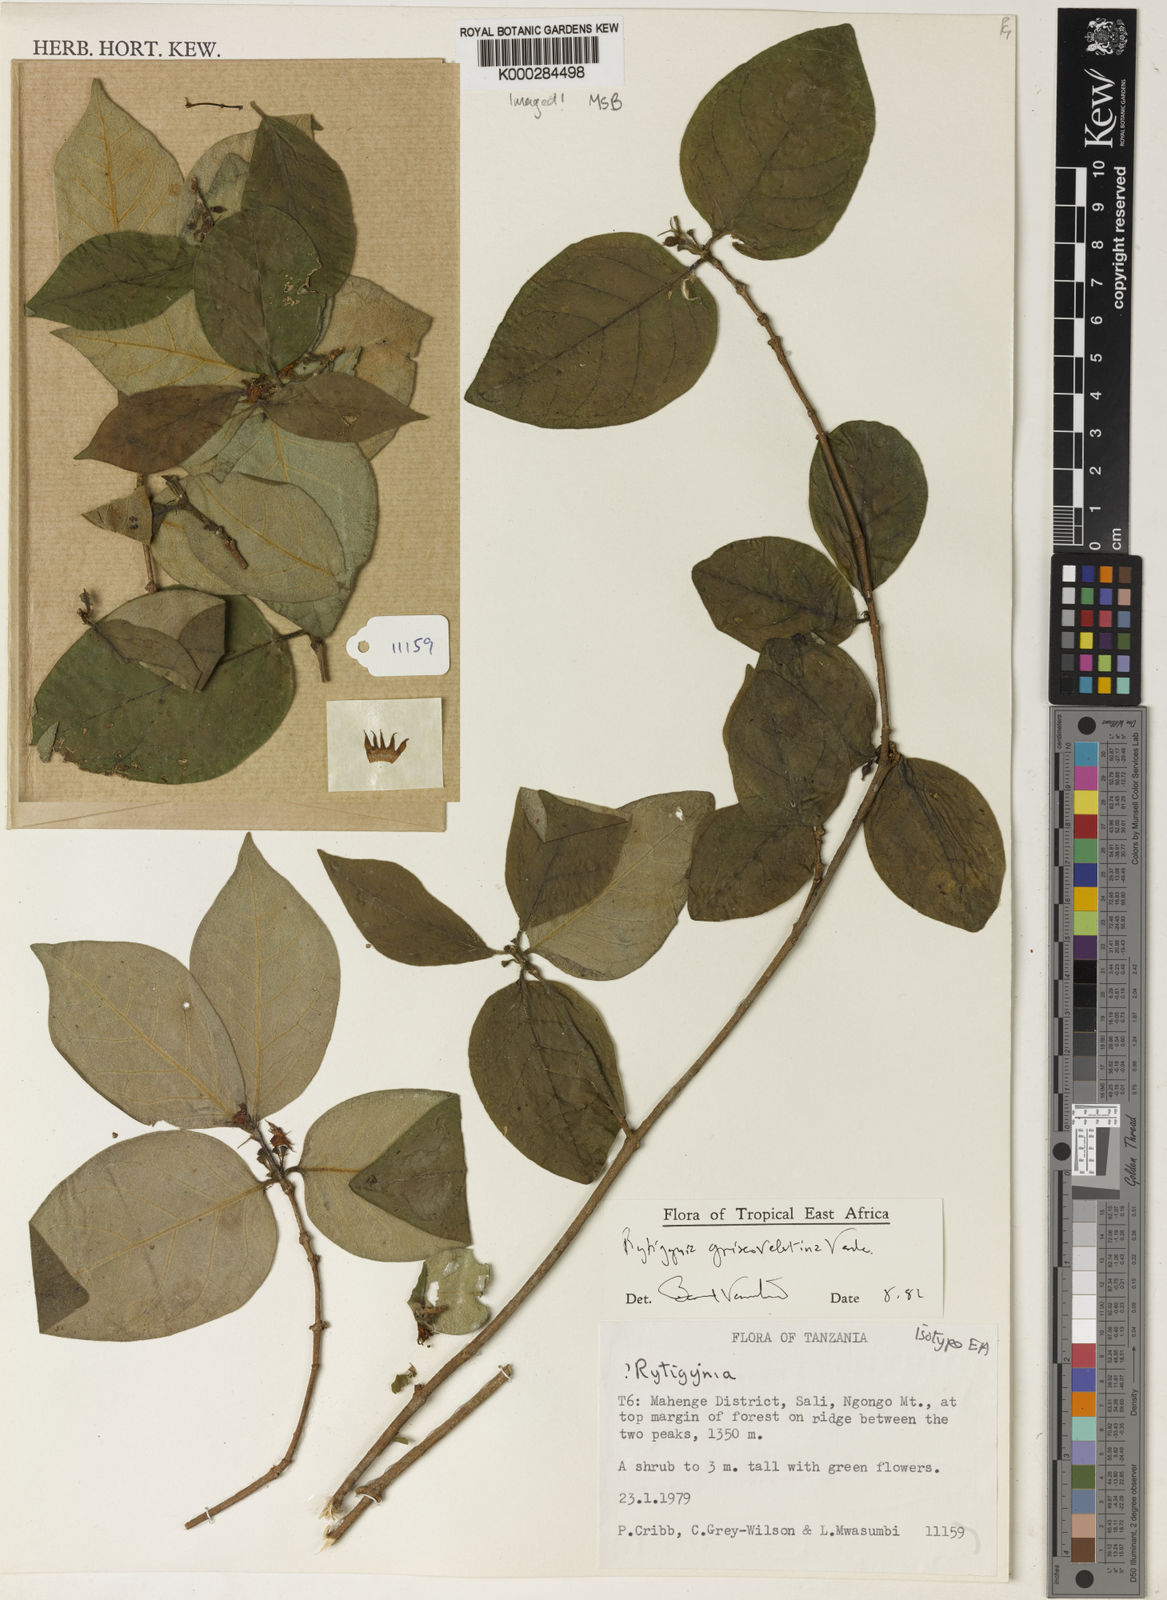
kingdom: Plantae
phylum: Tracheophyta
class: Magnoliopsida
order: Gentianales
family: Rubiaceae
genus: Rytigynia
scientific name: Rytigynia griseovelutina
